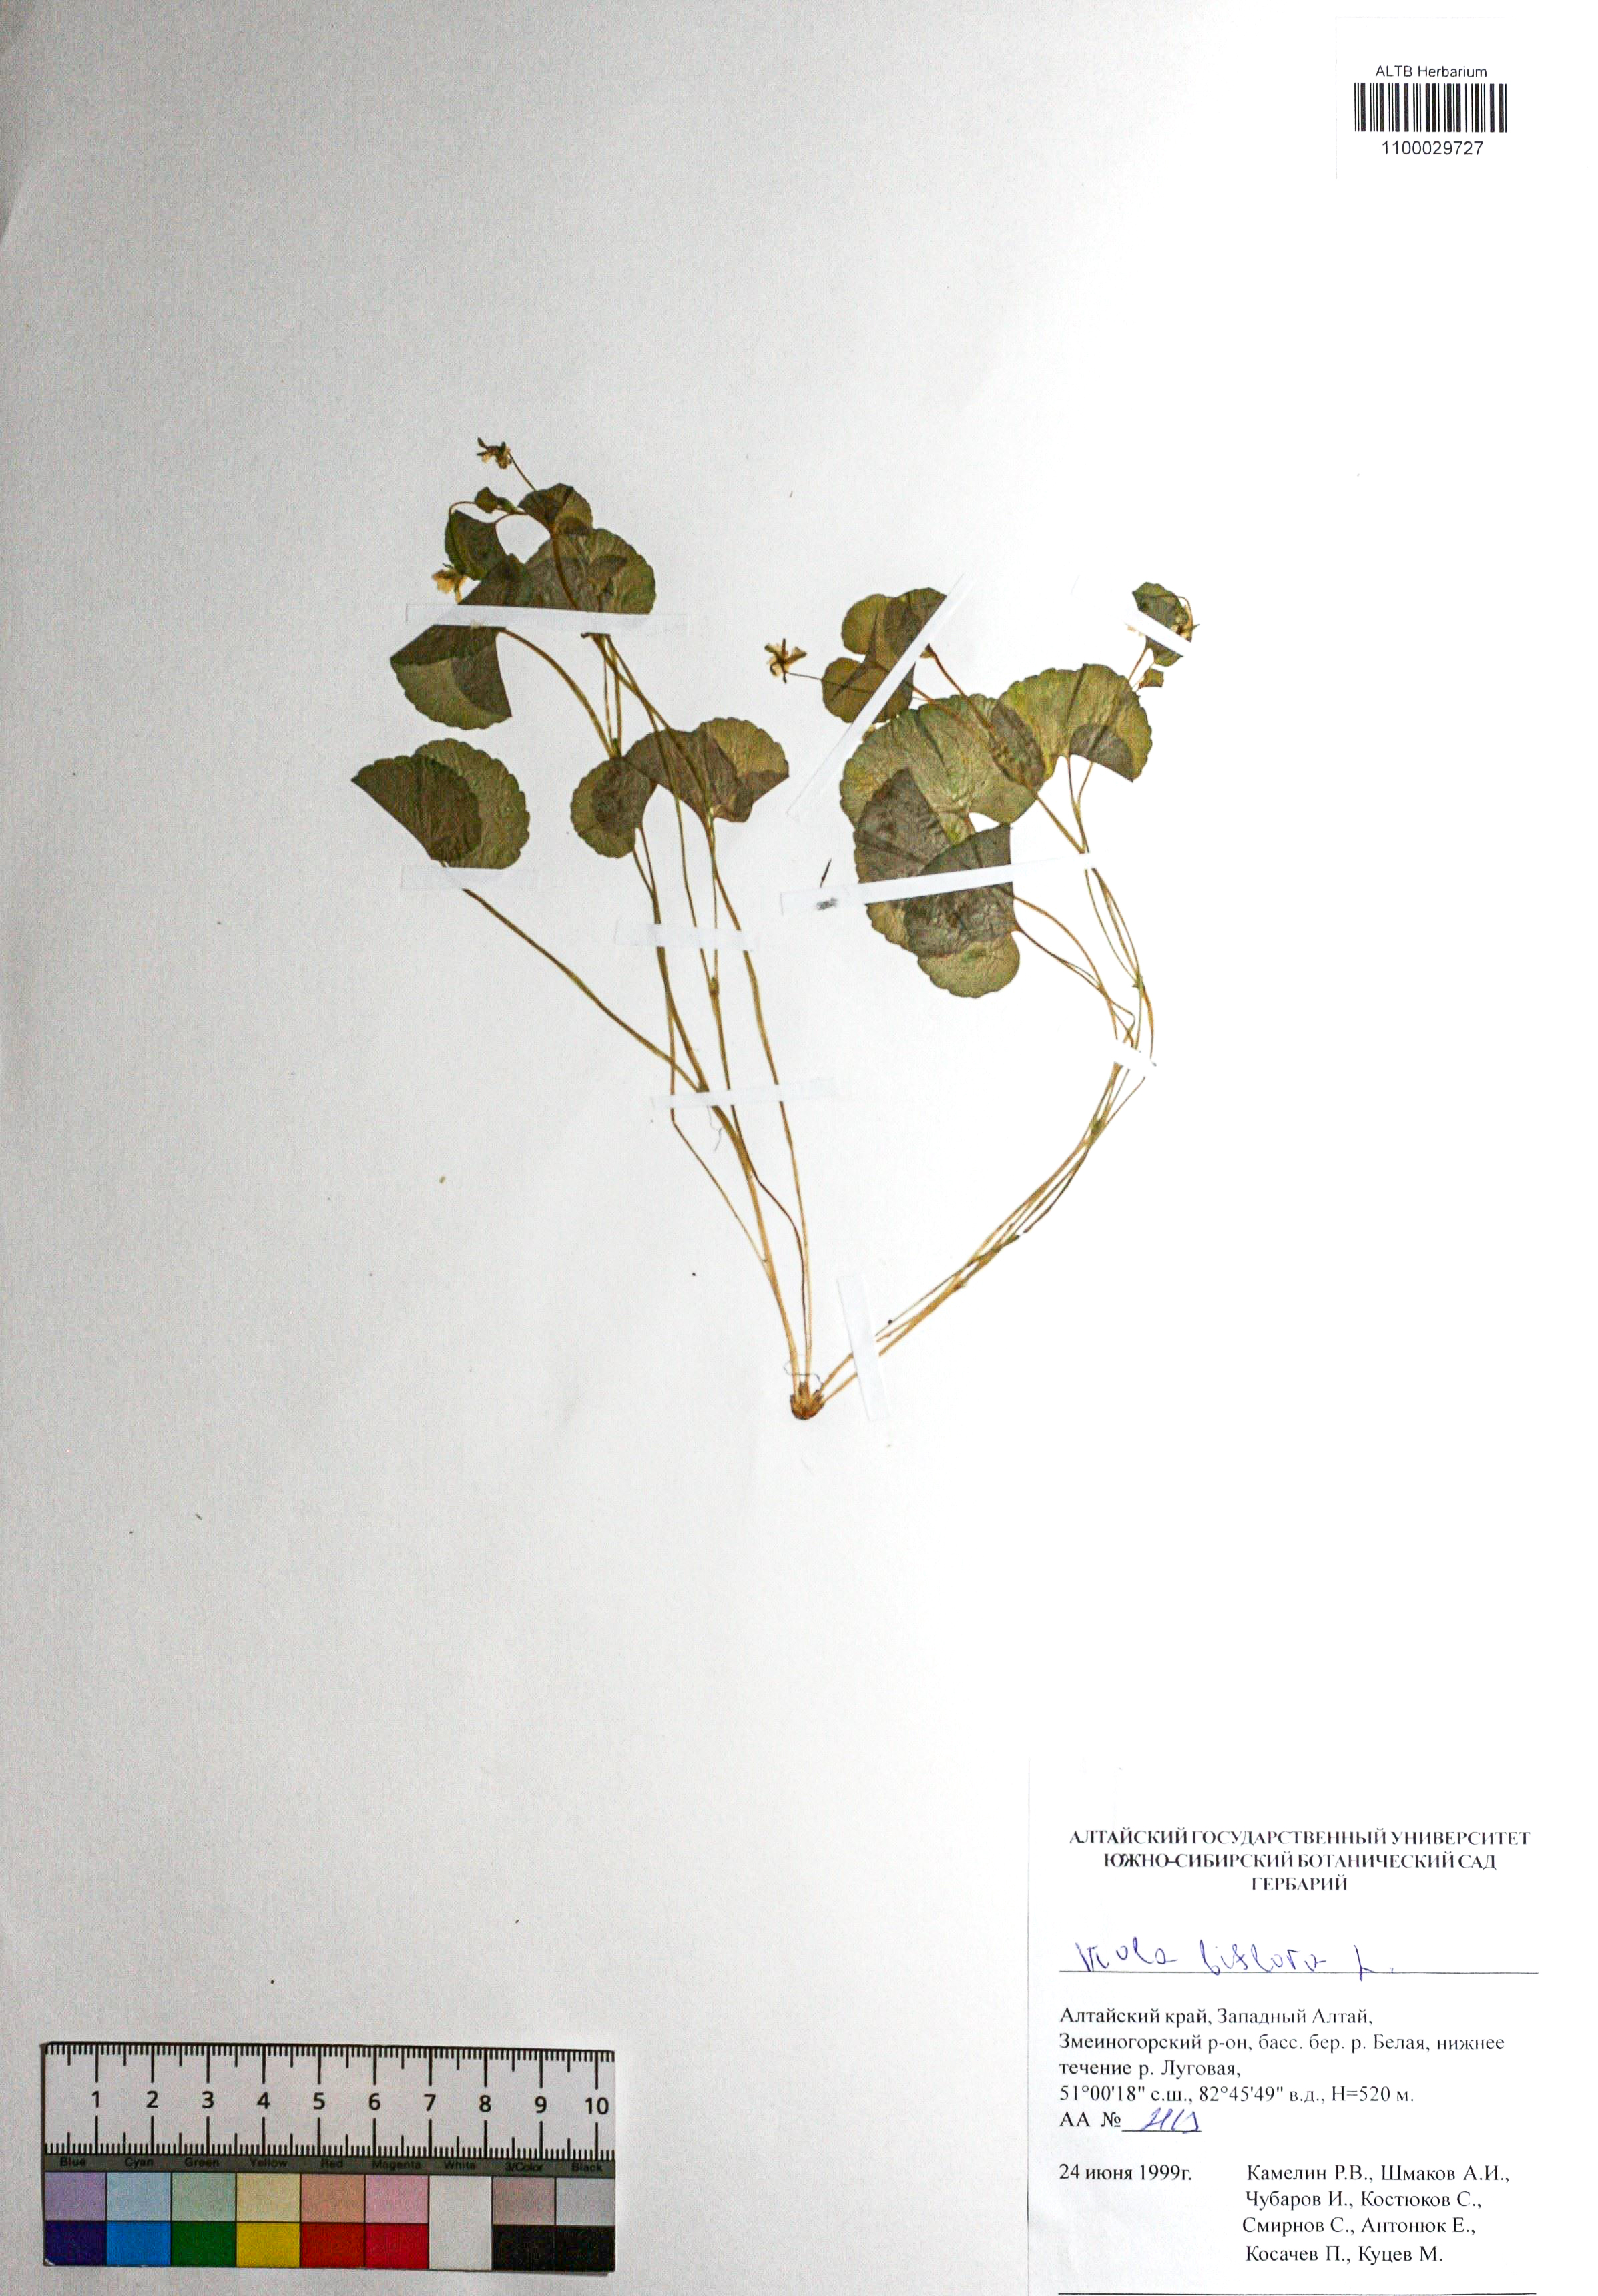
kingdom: Plantae
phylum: Tracheophyta
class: Magnoliopsida
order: Malpighiales
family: Violaceae
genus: Viola
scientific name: Viola biflora
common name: Alpine yellow violet
